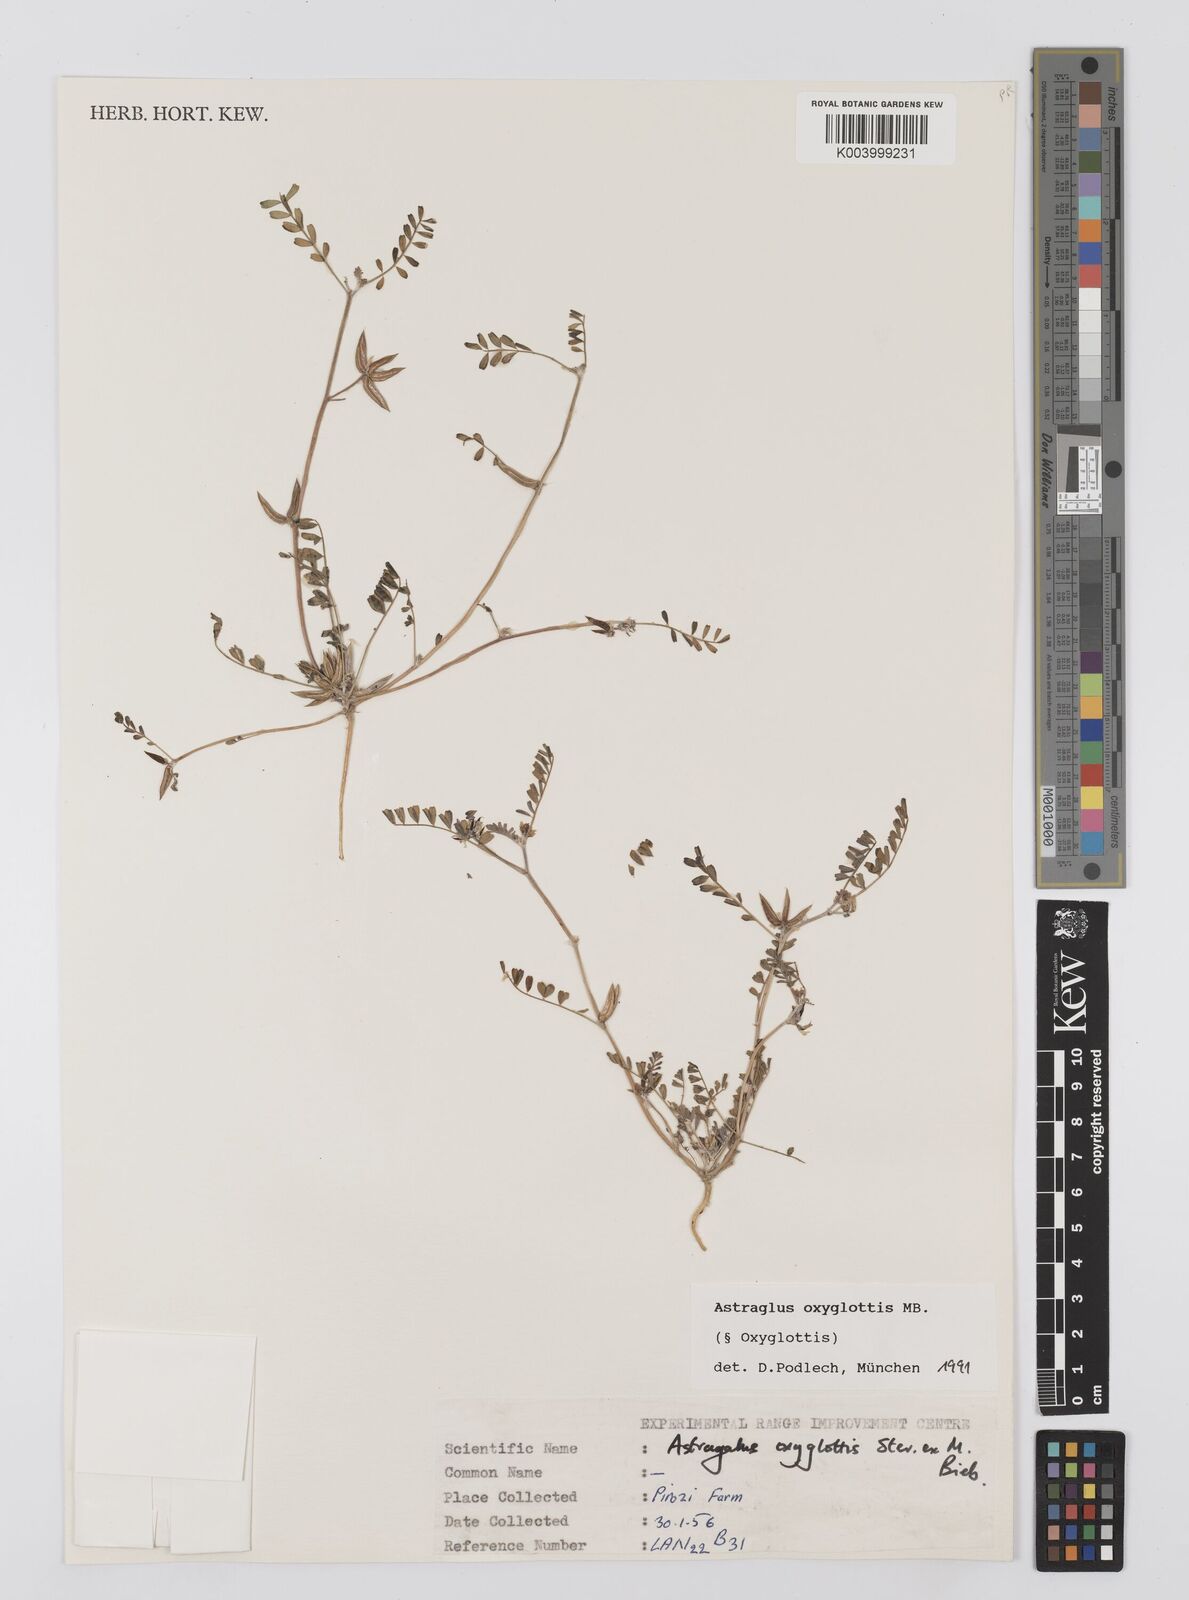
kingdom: Plantae
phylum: Tracheophyta
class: Magnoliopsida
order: Fabales
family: Fabaceae
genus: Astragalus
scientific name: Astragalus oxyglottis
